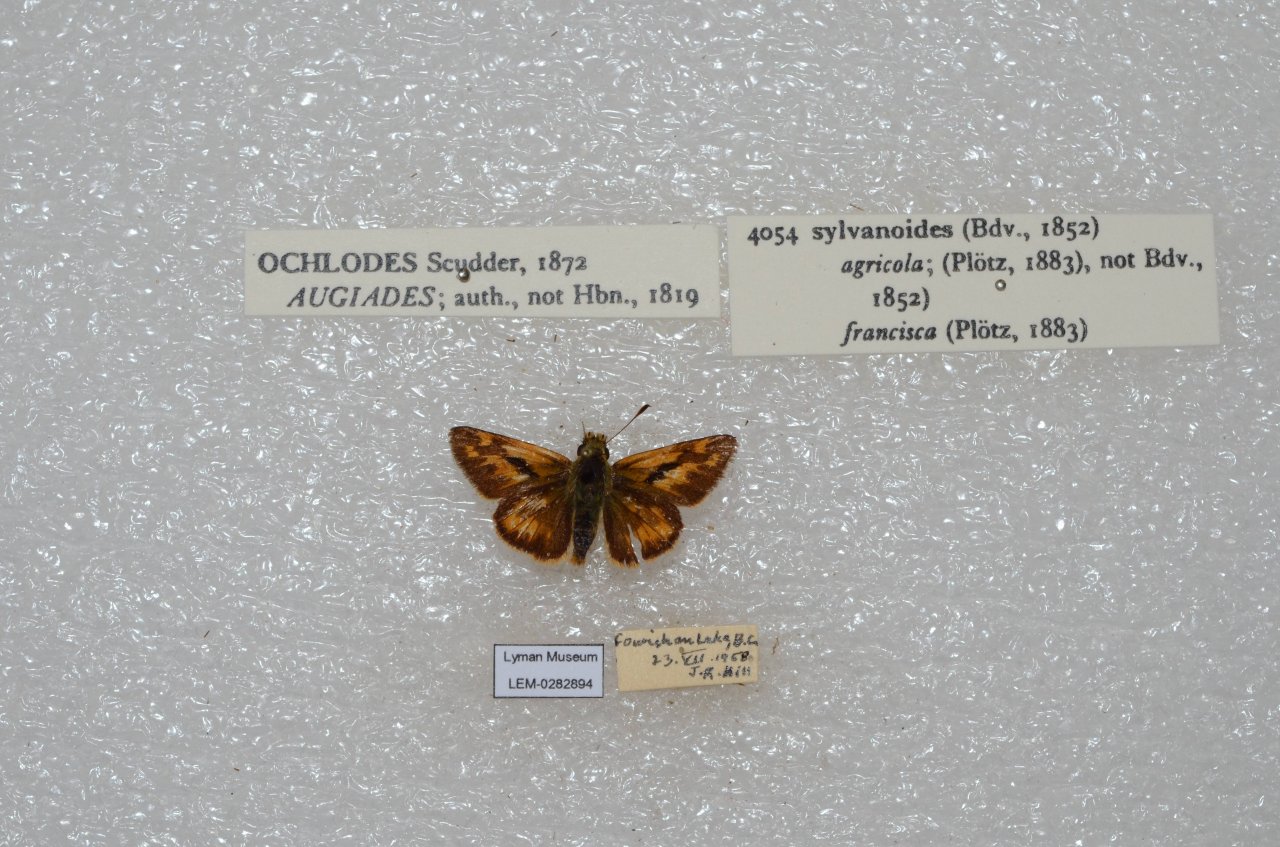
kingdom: Animalia
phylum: Arthropoda
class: Insecta
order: Lepidoptera
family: Hesperiidae
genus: Ochlodes
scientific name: Ochlodes sylvanoides
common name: Woodland Skipper
